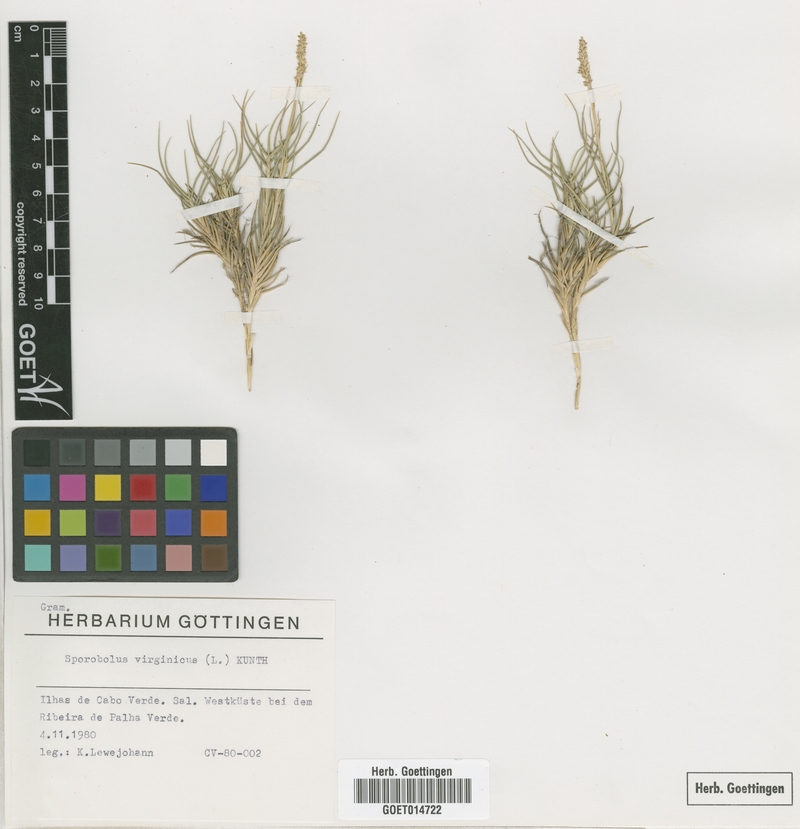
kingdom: Plantae
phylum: Tracheophyta
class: Liliopsida
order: Poales
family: Poaceae
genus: Sporobolus
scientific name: Sporobolus virginicus
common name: Beach dropseed
